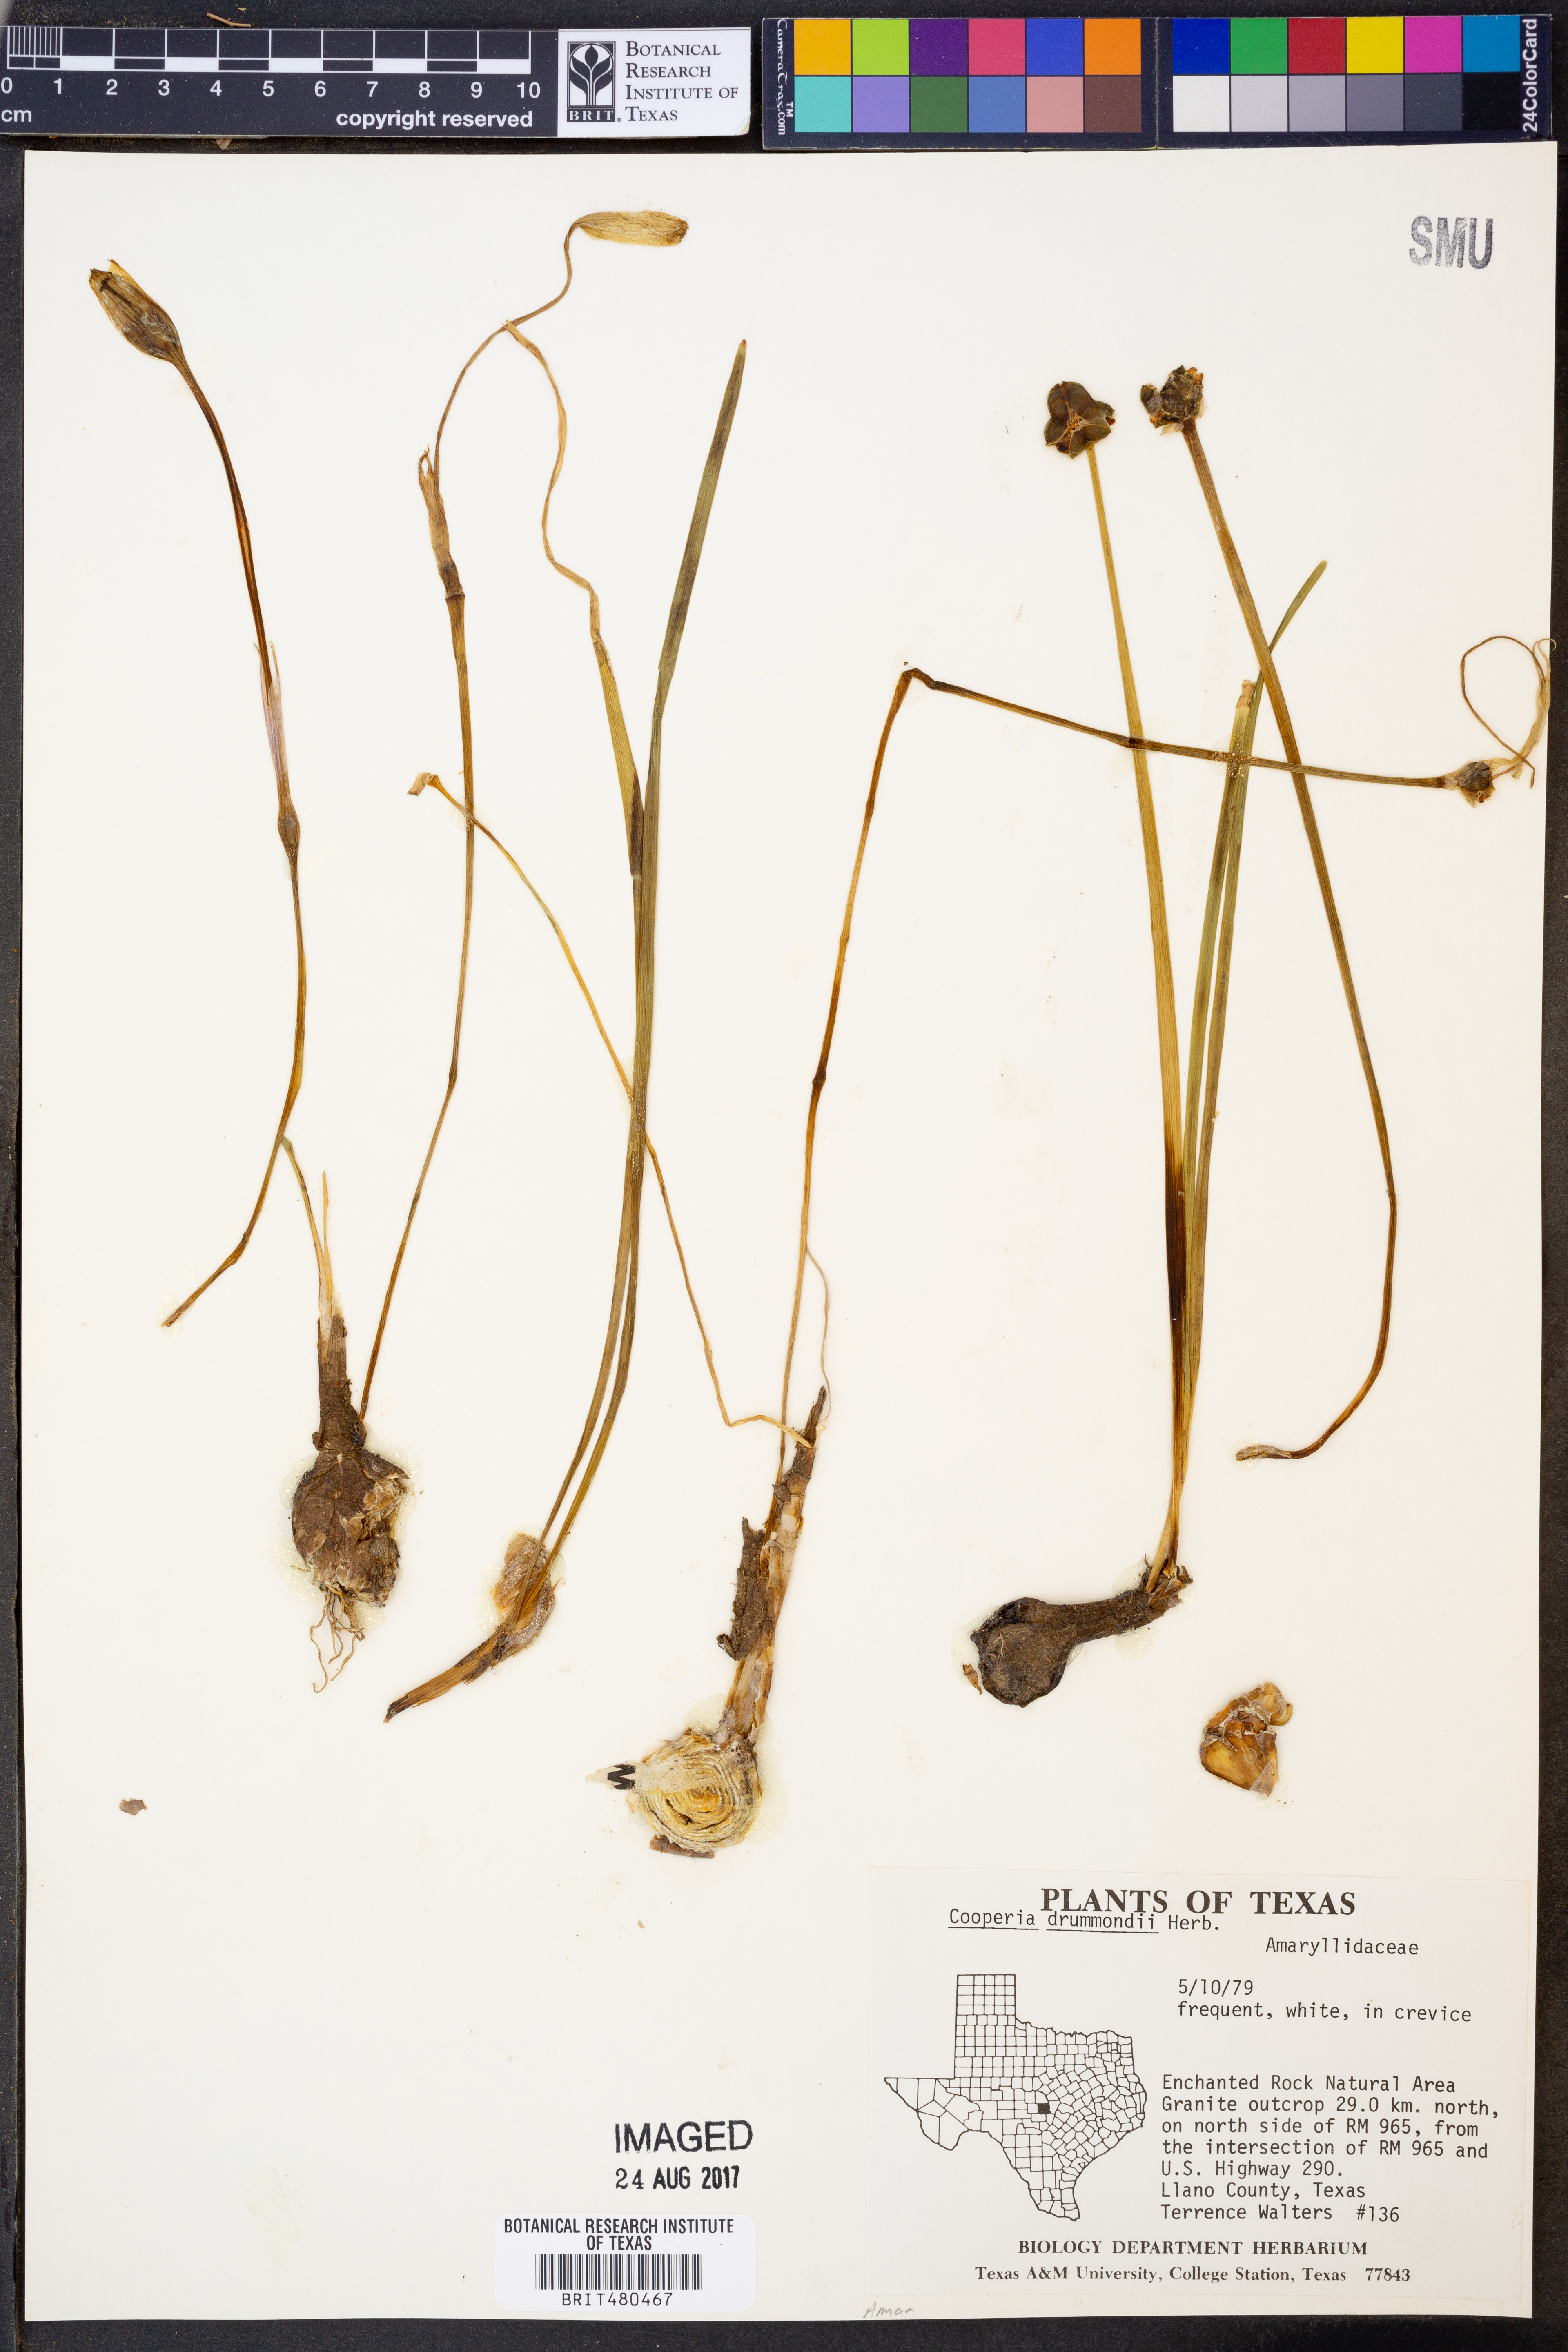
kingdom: Plantae
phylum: Tracheophyta
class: Liliopsida
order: Asparagales
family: Amaryllidaceae
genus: Zephyranthes
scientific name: Zephyranthes chlorosolen
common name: Evening rain-lily
